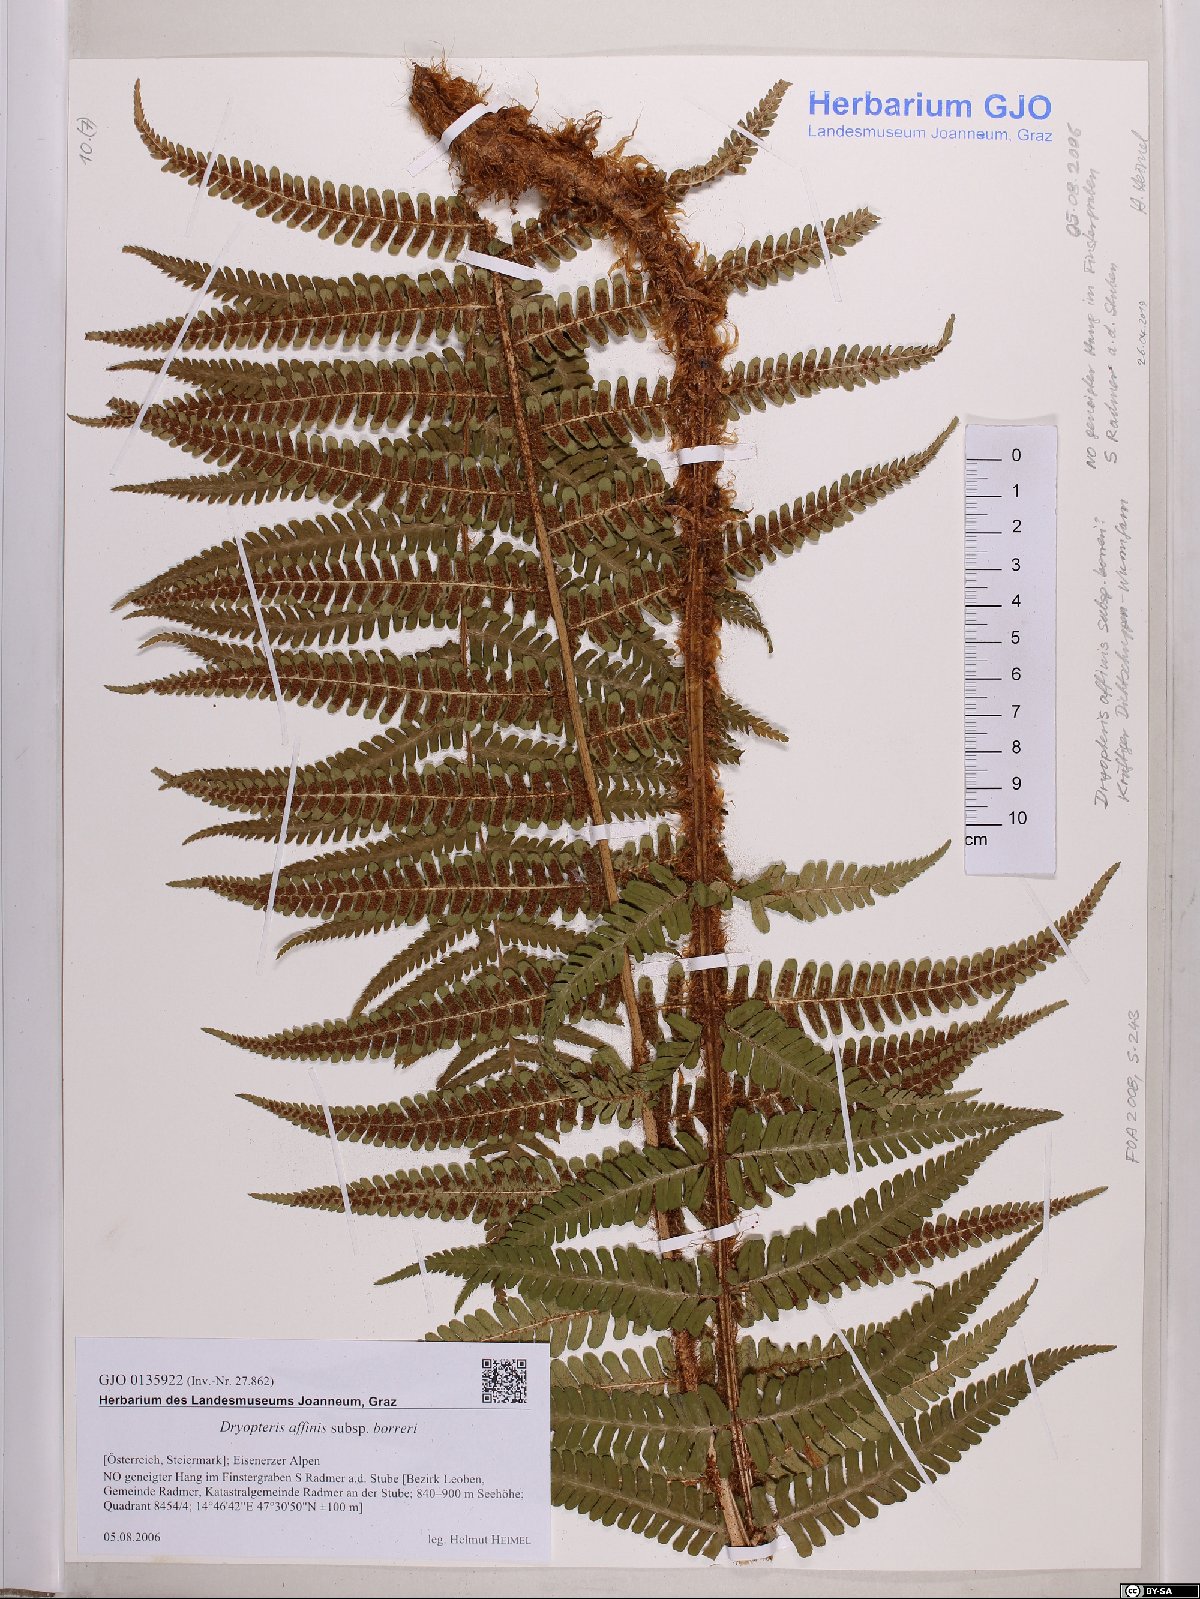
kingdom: Plantae
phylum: Tracheophyta
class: Polypodiopsida
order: Polypodiales
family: Dryopteridaceae
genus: Dryopteris
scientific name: Dryopteris borreri
